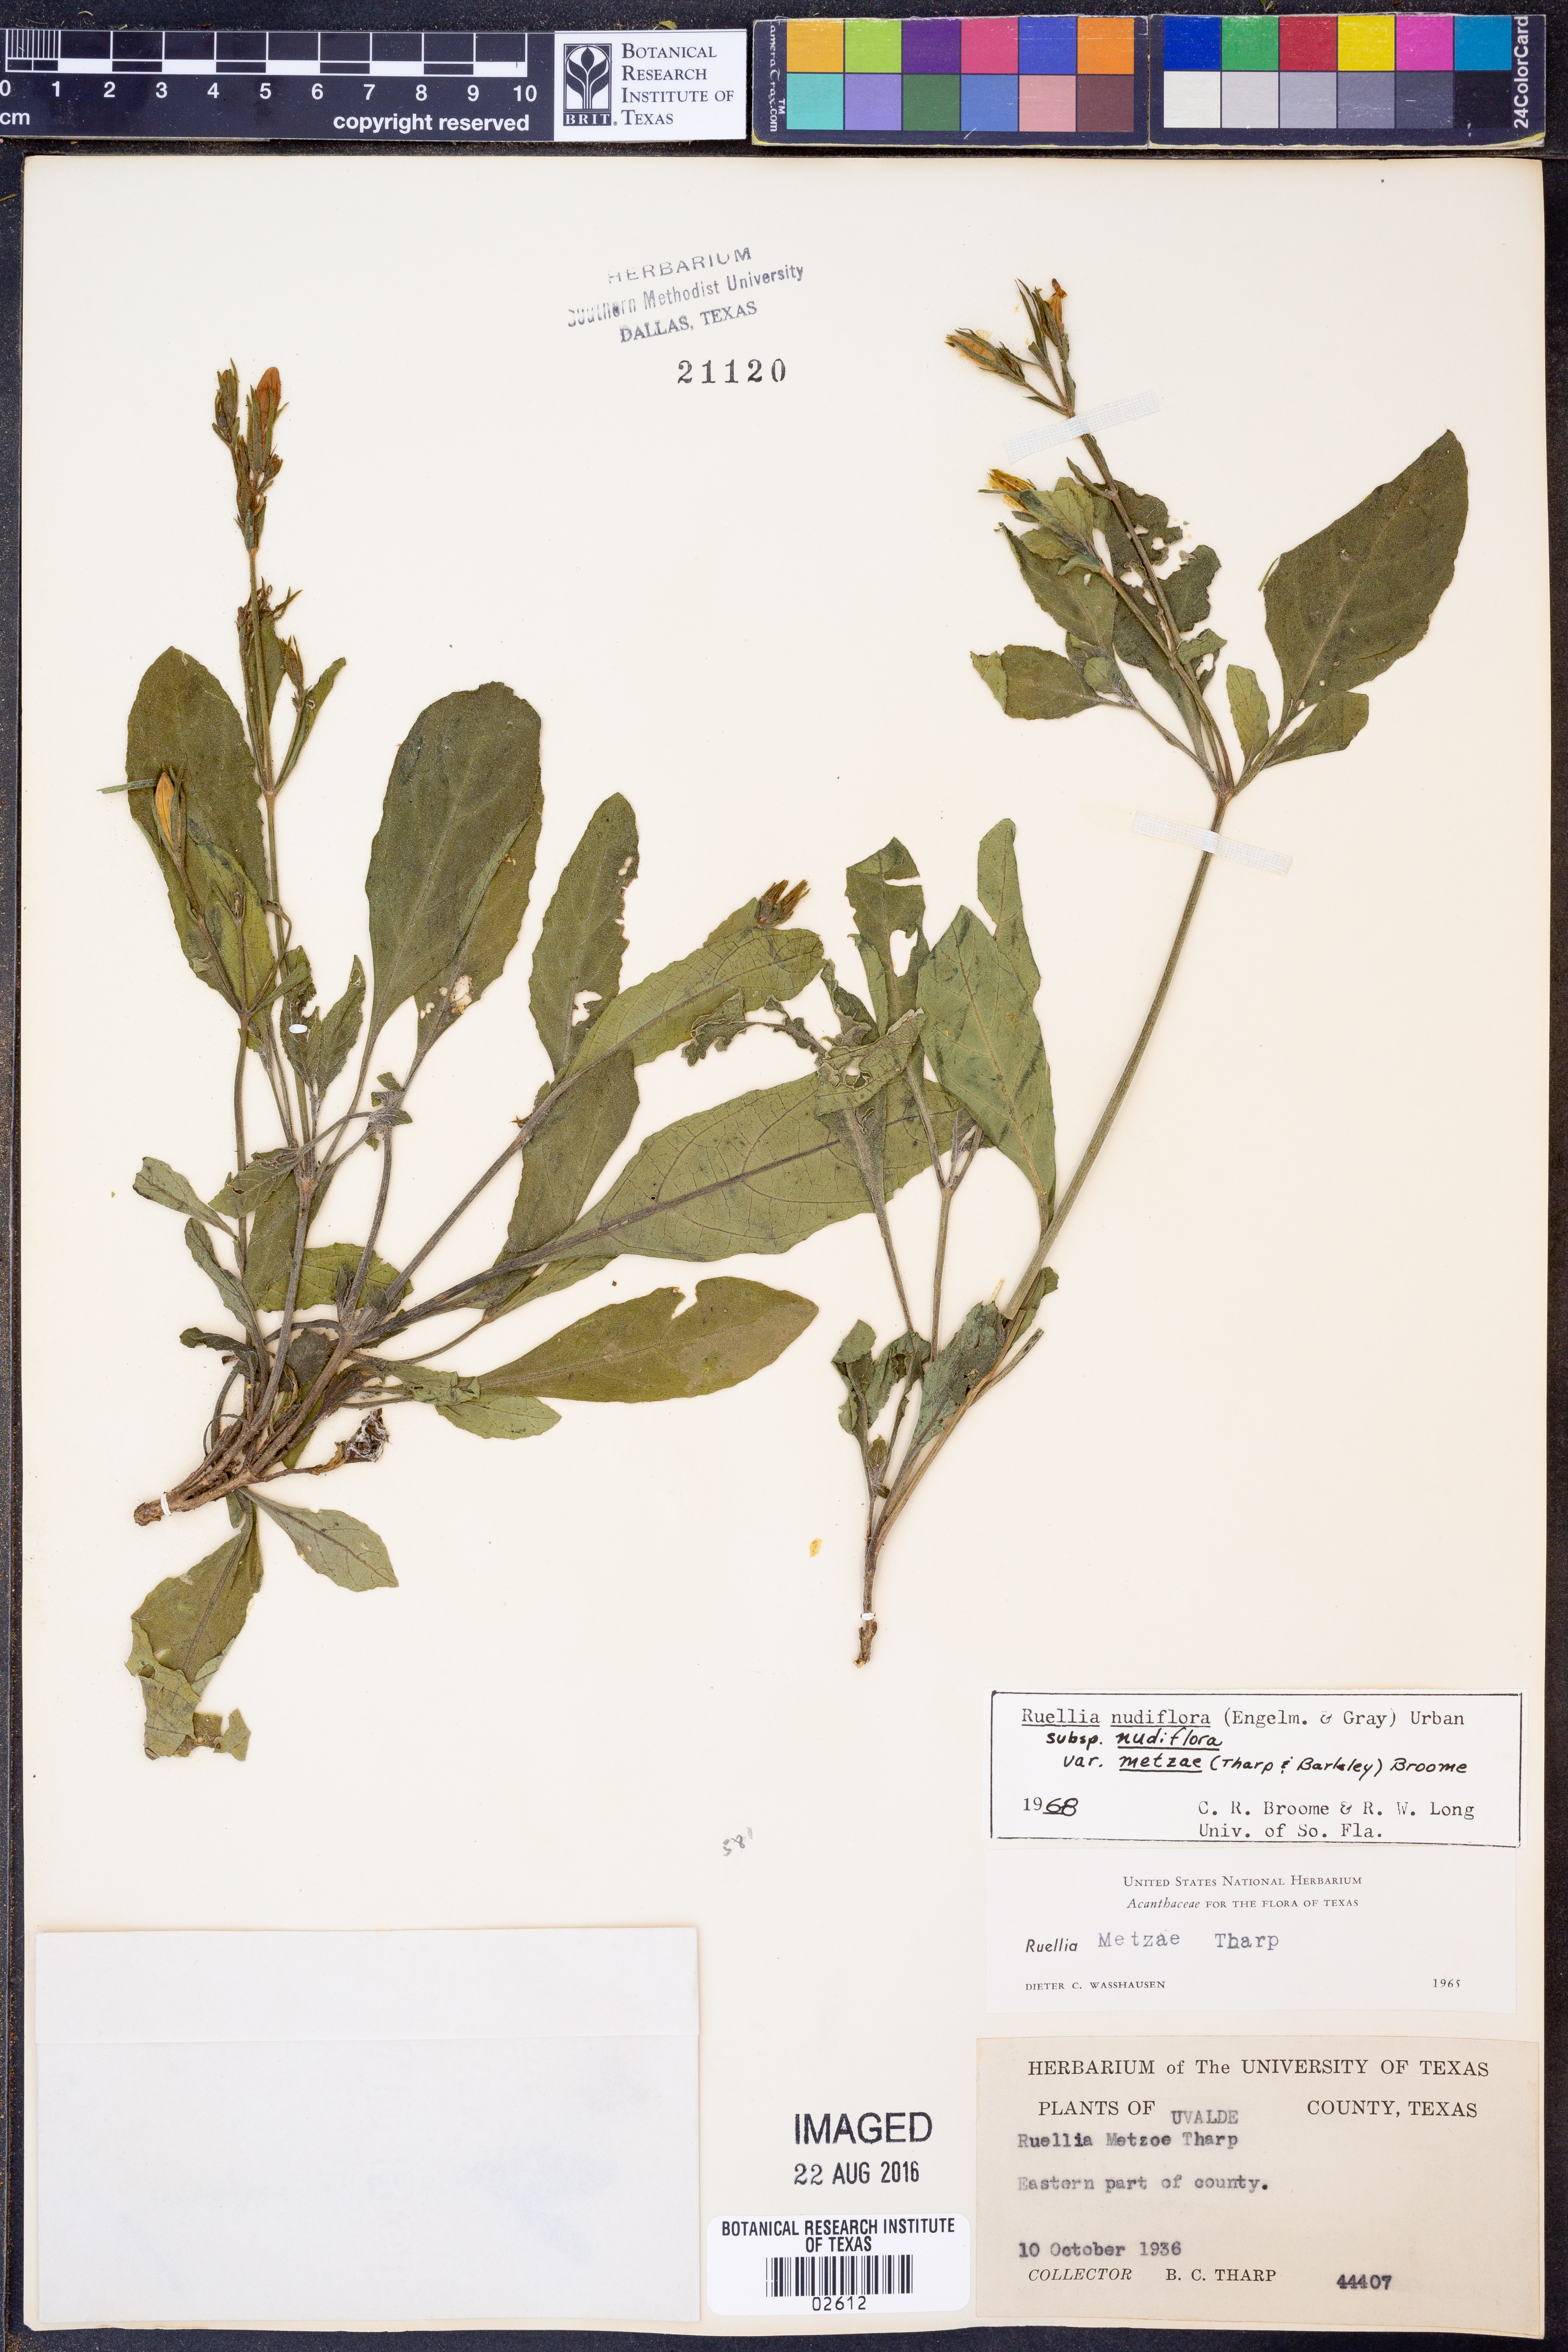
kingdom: Plantae
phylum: Tracheophyta
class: Magnoliopsida
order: Lamiales
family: Acanthaceae
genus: Ruellia
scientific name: Ruellia ciliatiflora
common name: Hairyflower wild petunia
